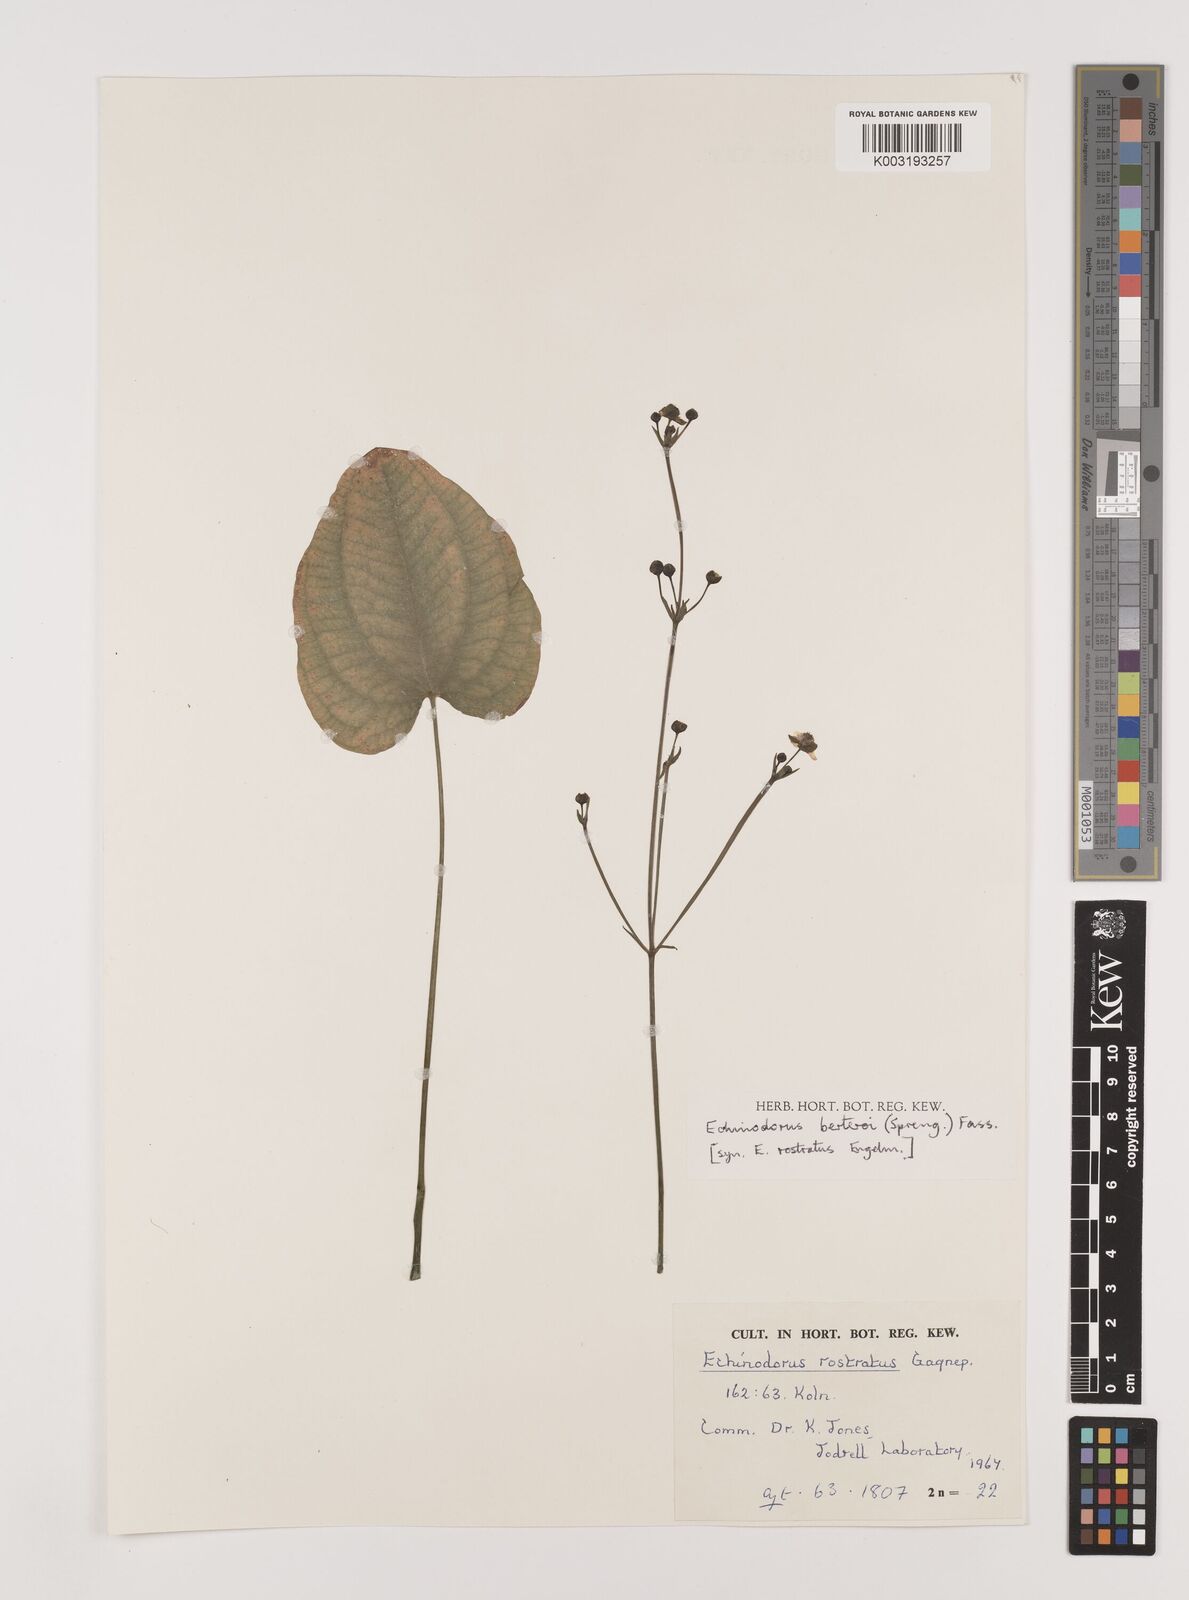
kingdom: Plantae
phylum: Tracheophyta
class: Liliopsida
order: Alismatales
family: Alismataceae
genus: Echinodorus
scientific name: Echinodorus berteroi
